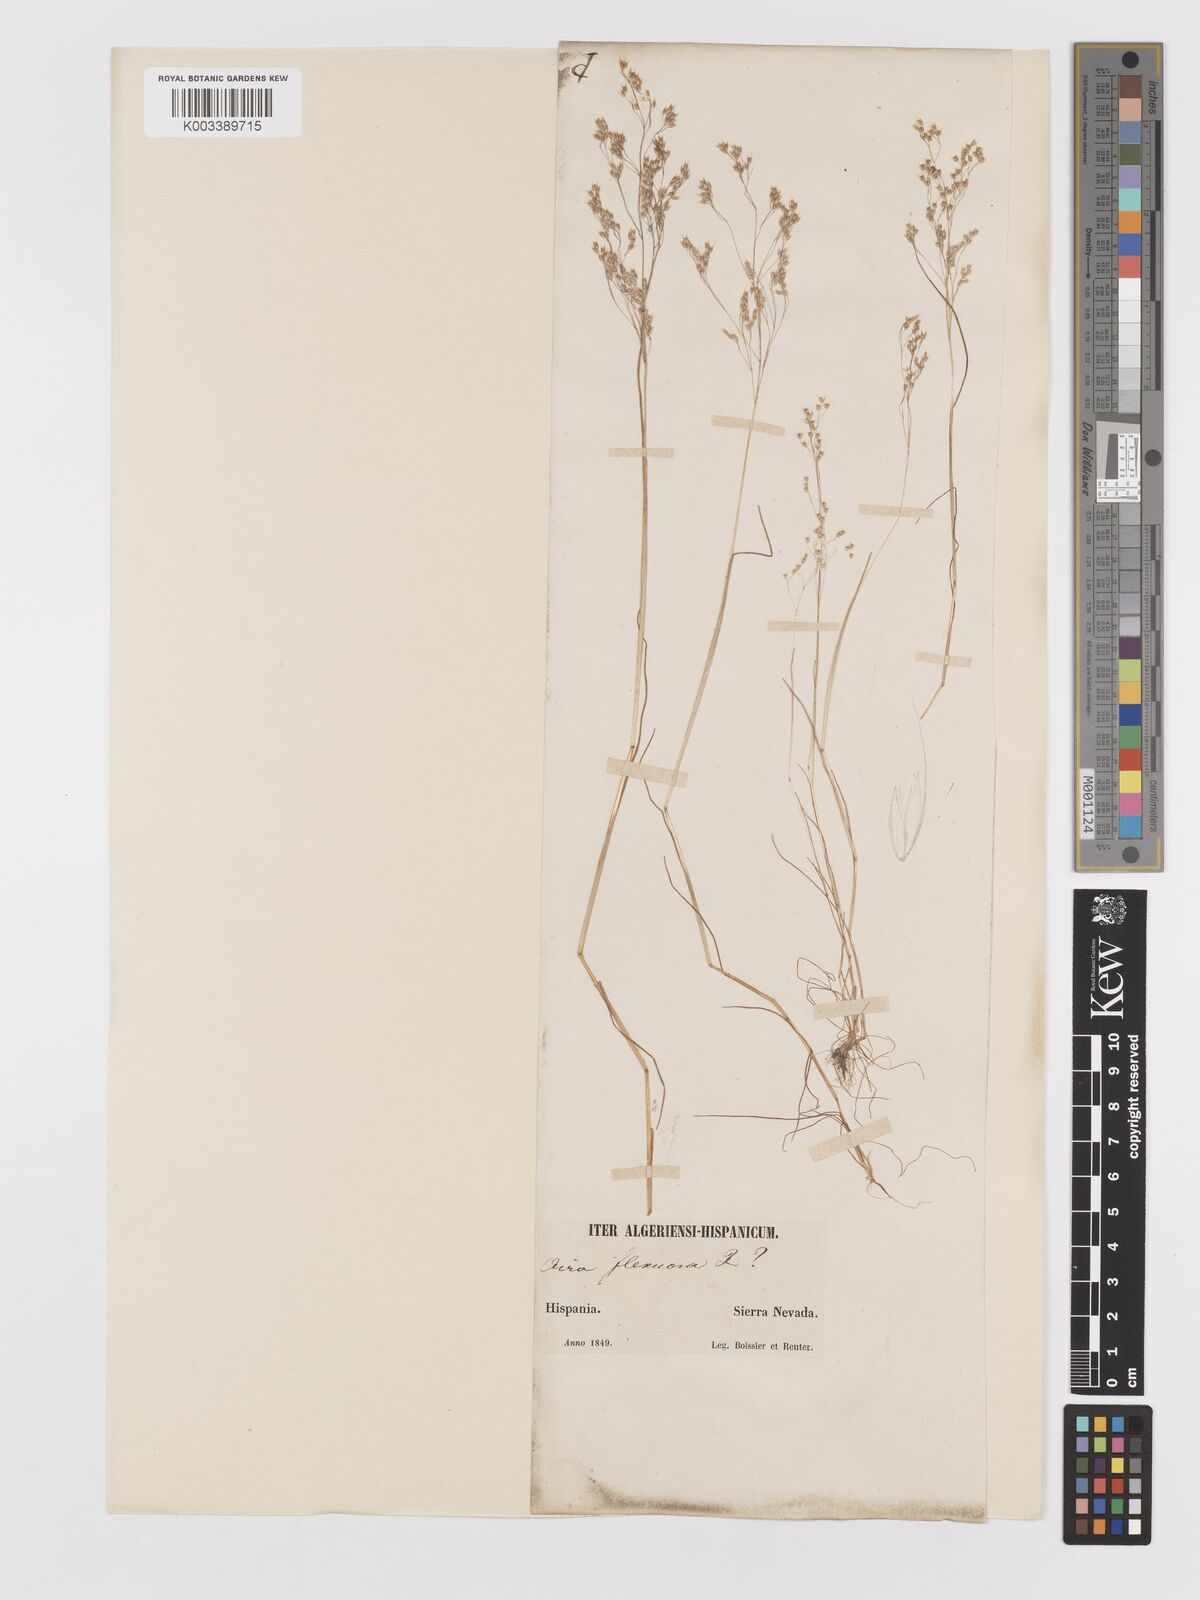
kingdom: Plantae
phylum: Tracheophyta
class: Liliopsida
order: Poales
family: Poaceae
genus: Aira
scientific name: Aira caryophyllea
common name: Silver hairgrass
